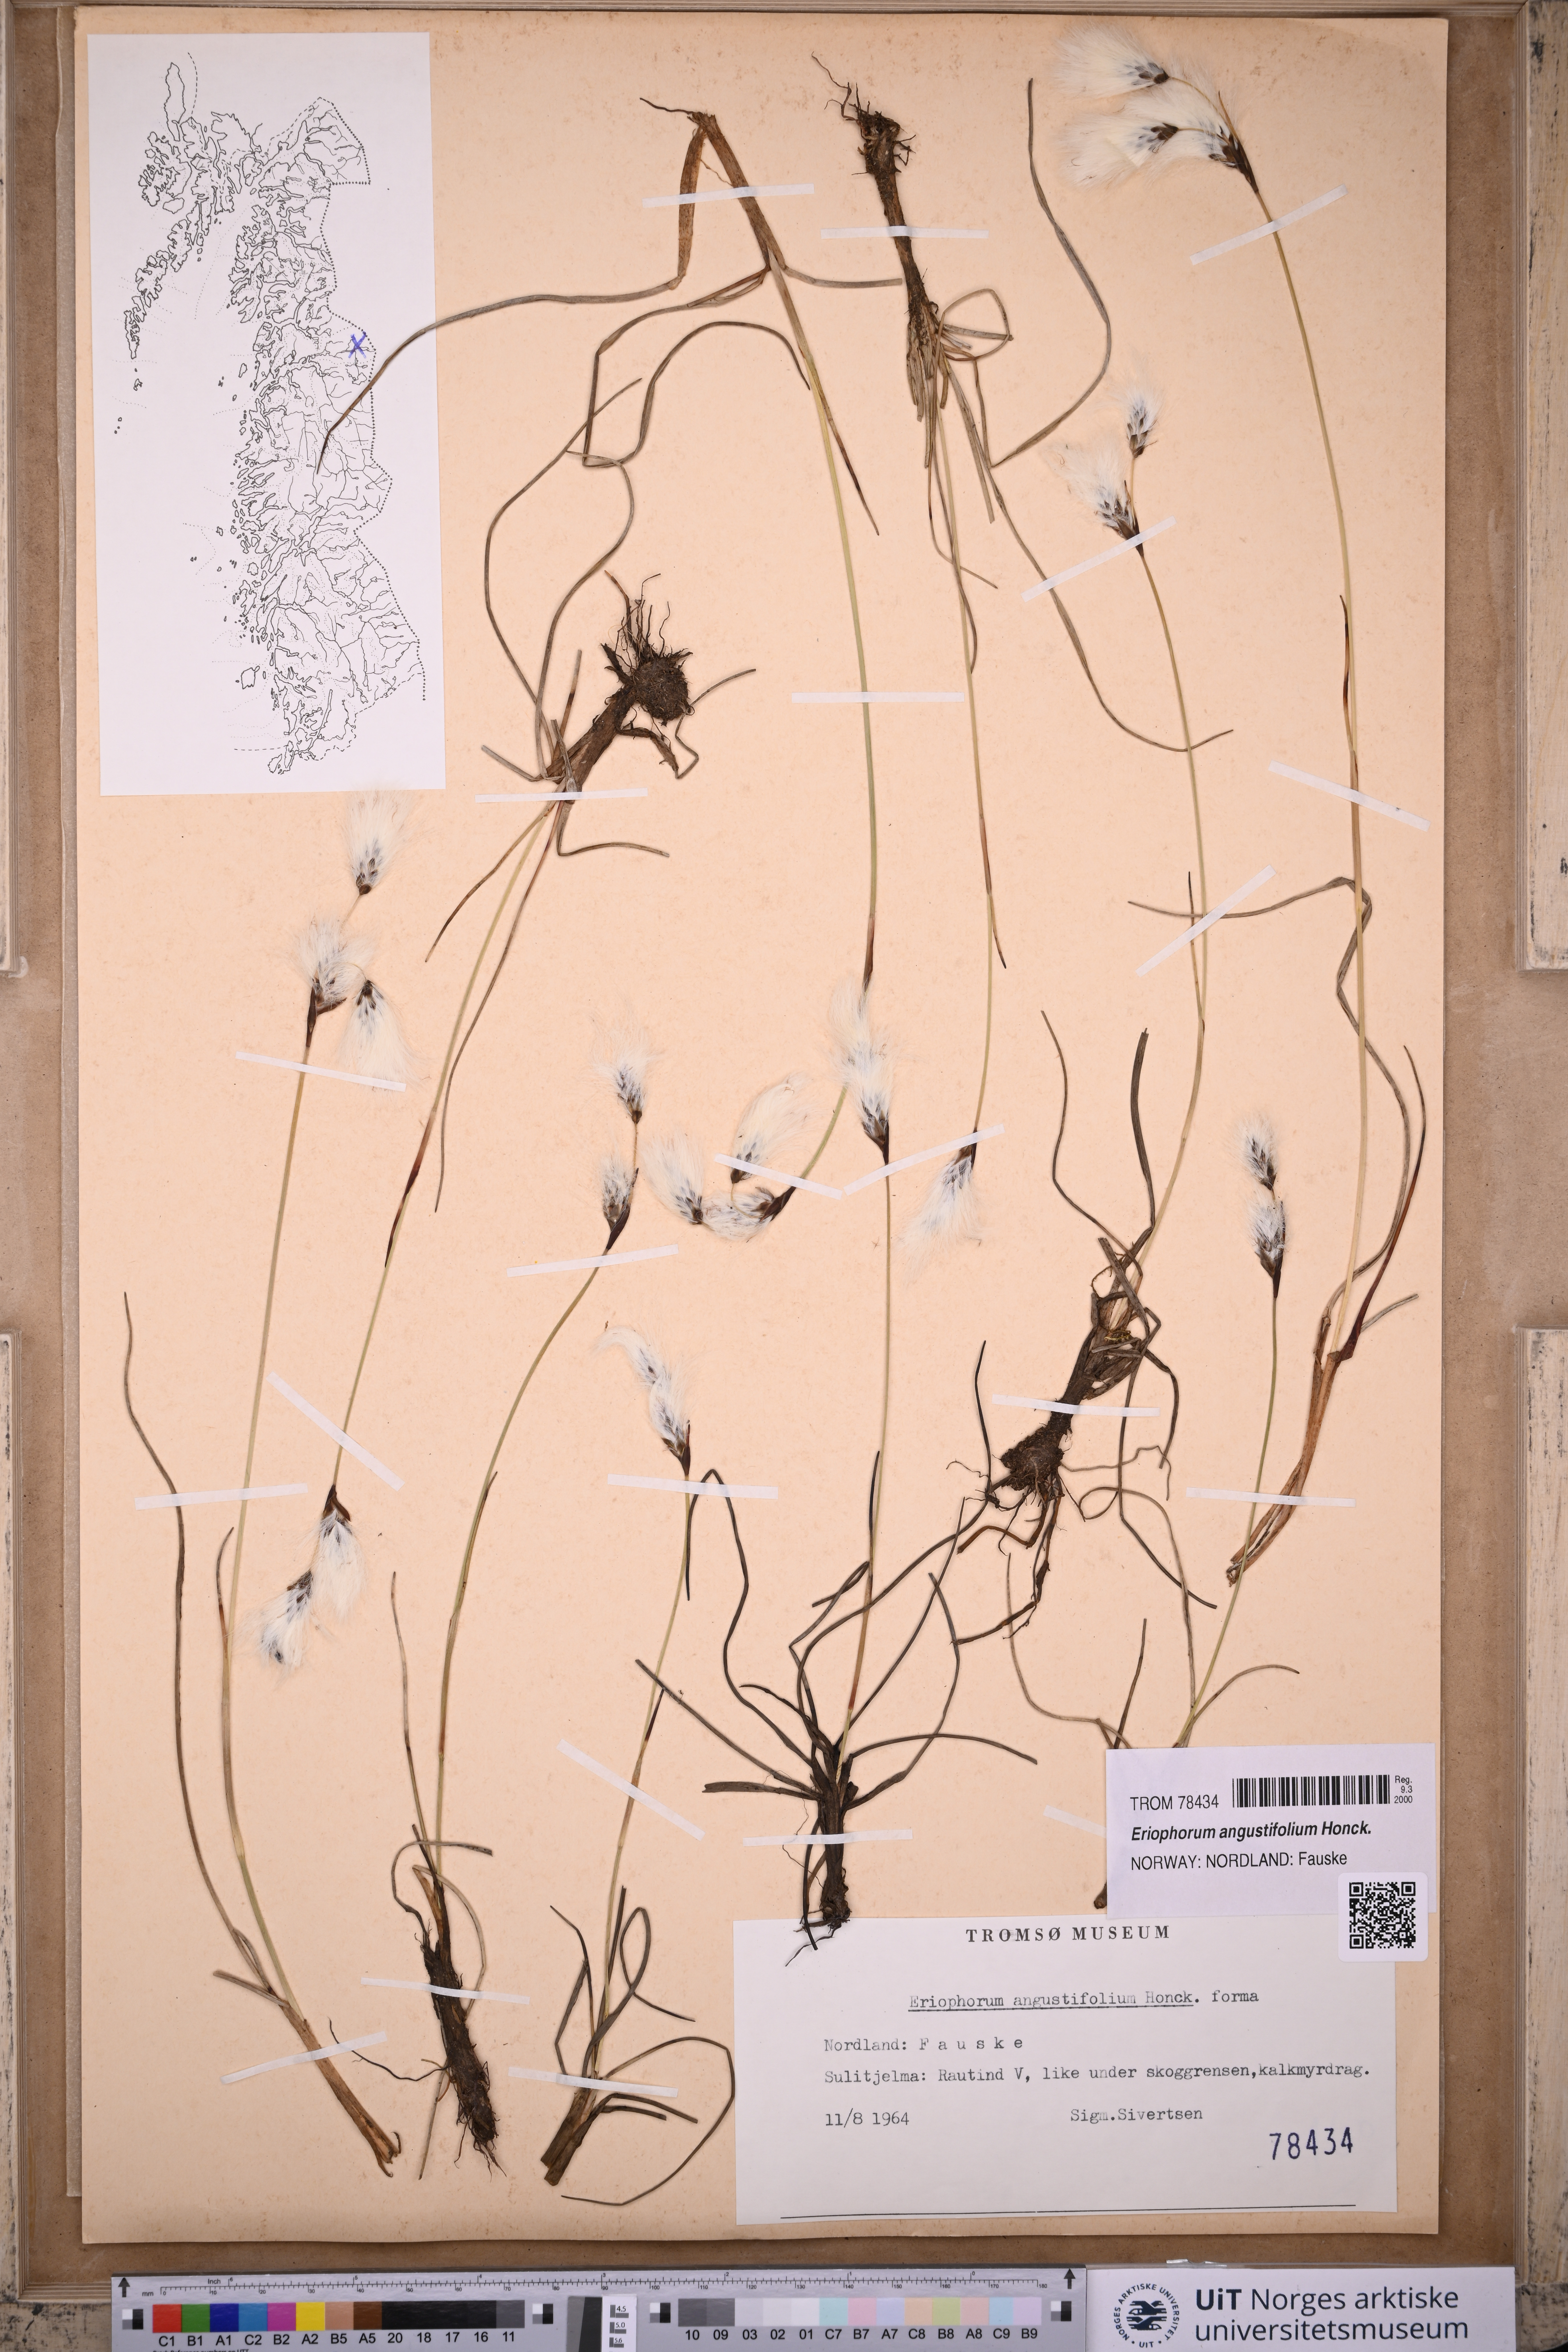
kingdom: Plantae
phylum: Tracheophyta
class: Liliopsida
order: Poales
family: Cyperaceae
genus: Eriophorum
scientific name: Eriophorum angustifolium
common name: Common cottongrass
